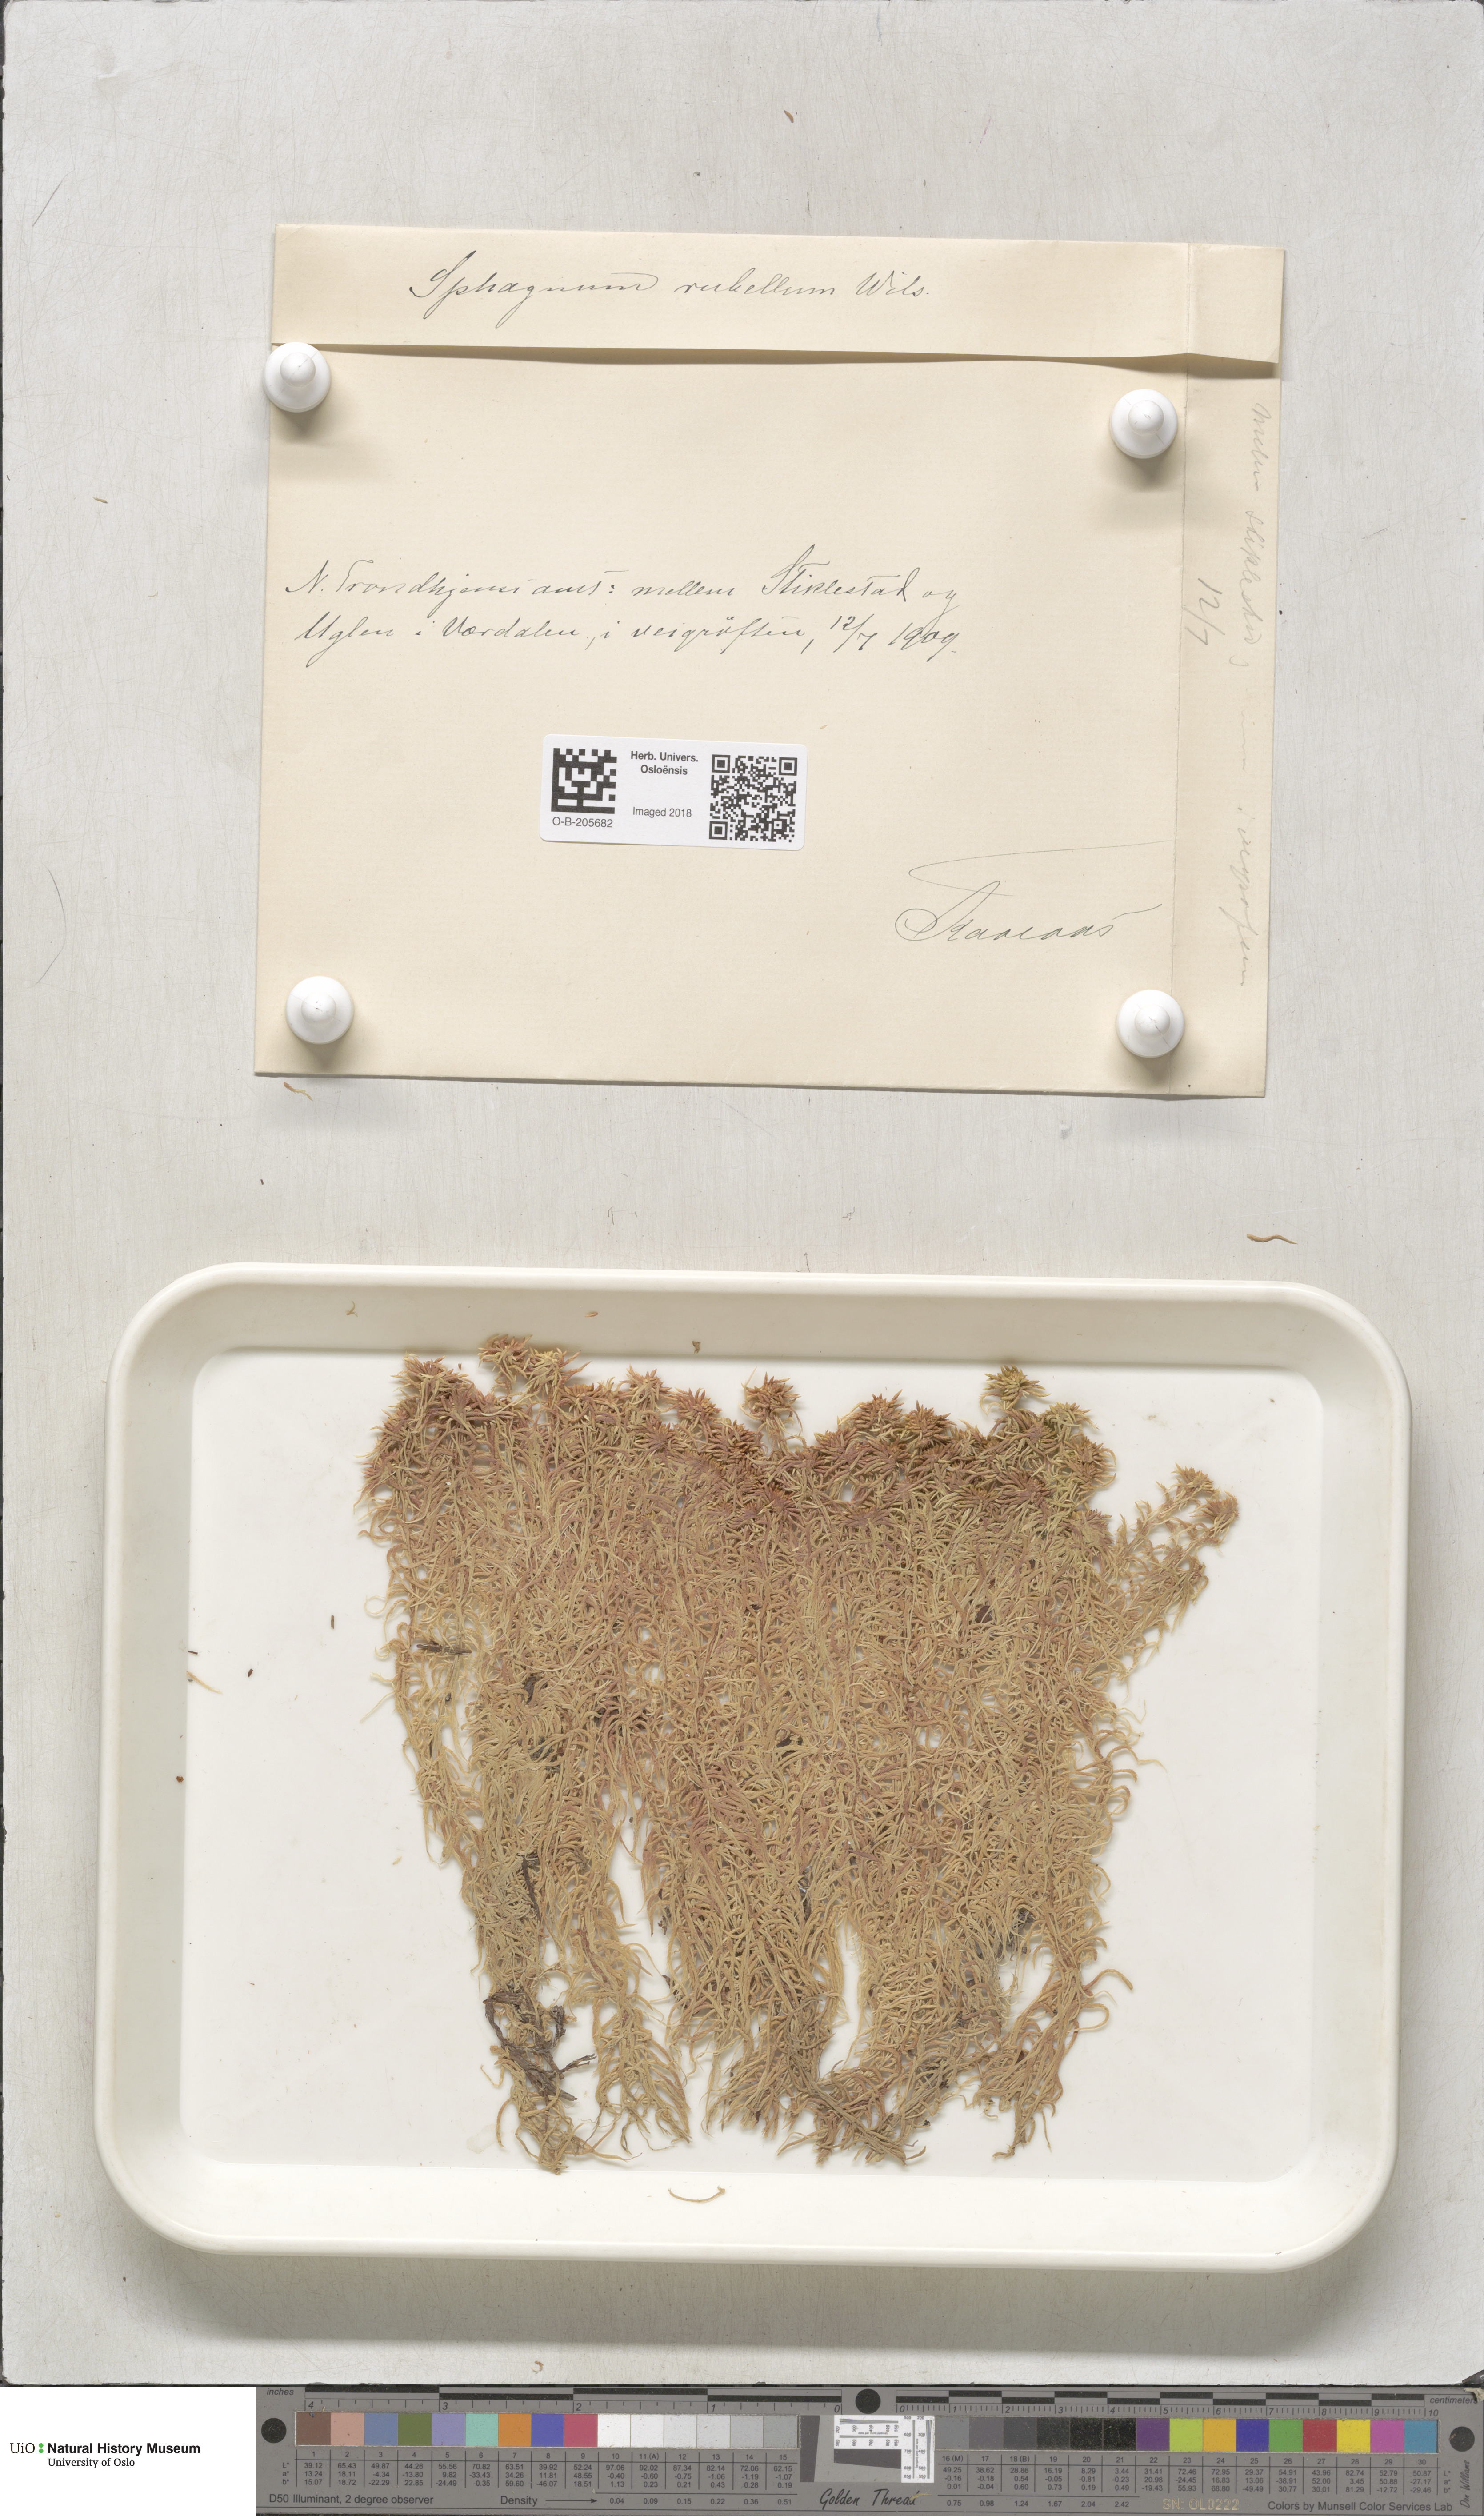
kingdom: Plantae
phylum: Bryophyta
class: Sphagnopsida
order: Sphagnales
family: Sphagnaceae
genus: Sphagnum
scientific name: Sphagnum rubellum
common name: Red peat moss
